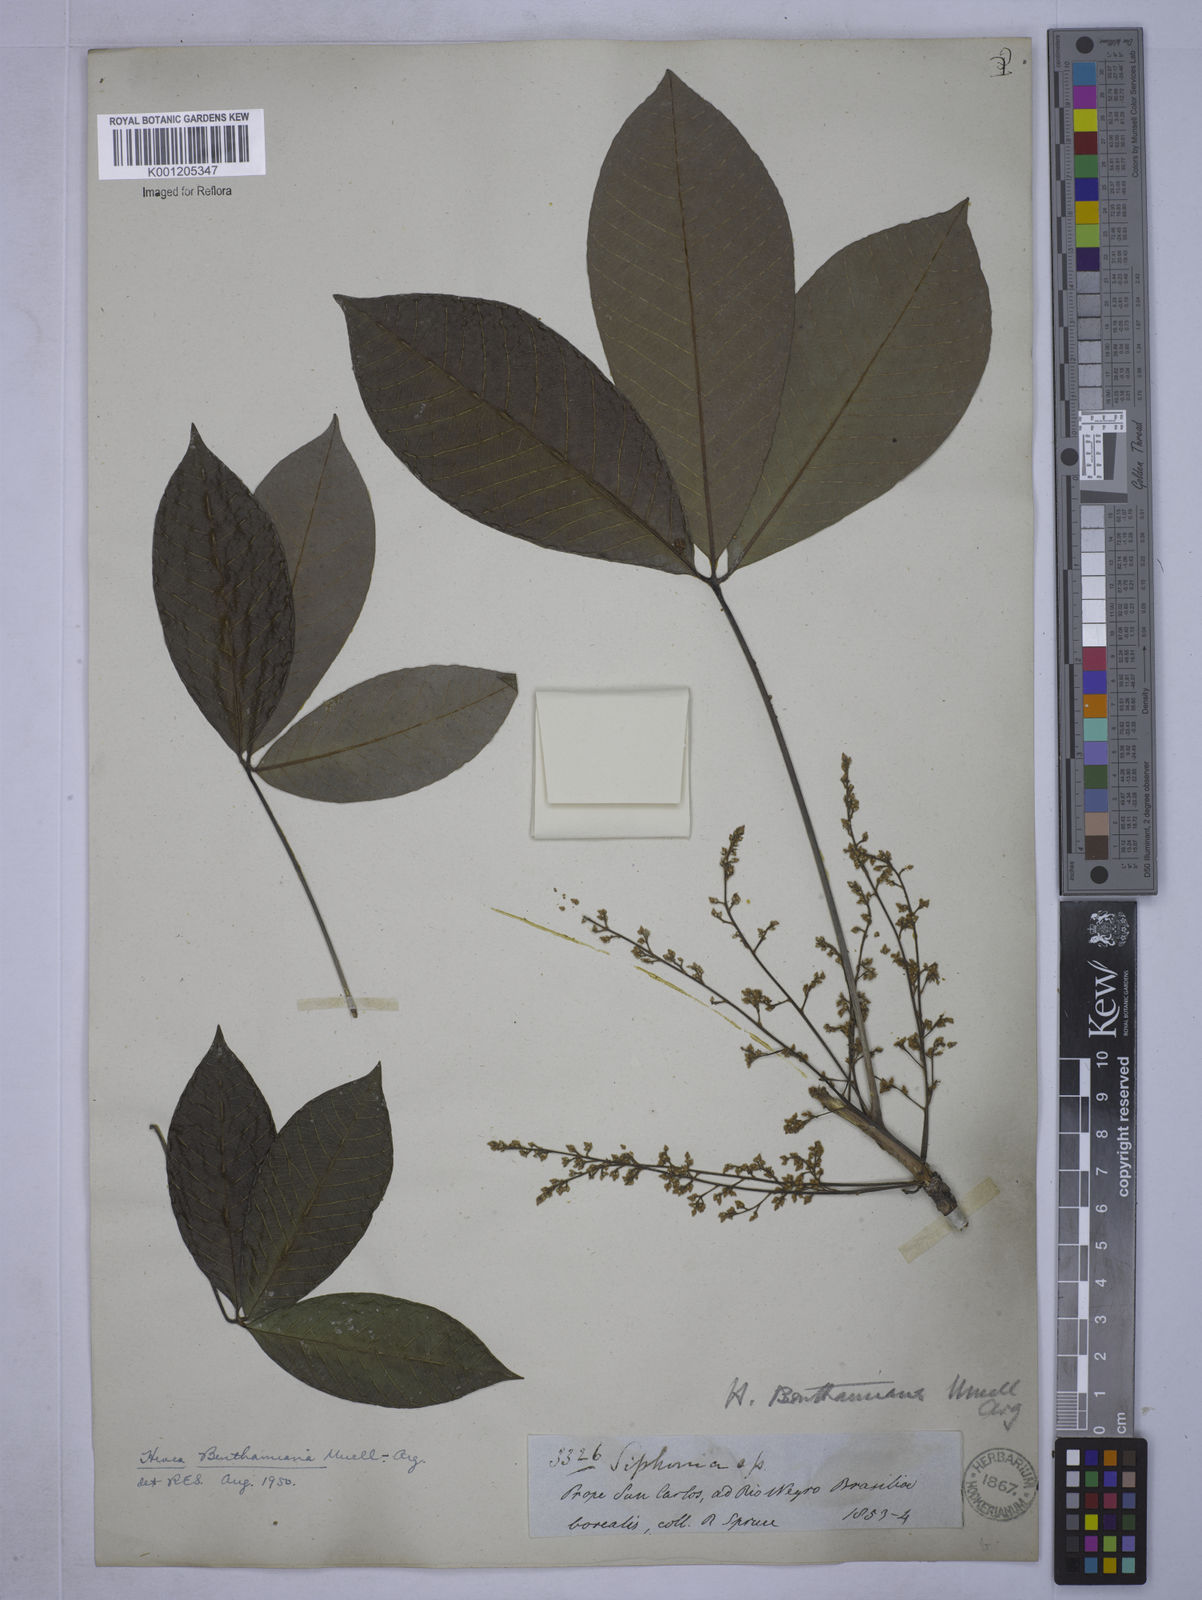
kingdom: Plantae
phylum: Tracheophyta
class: Magnoliopsida
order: Malpighiales
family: Euphorbiaceae
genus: Hevea
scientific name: Hevea
